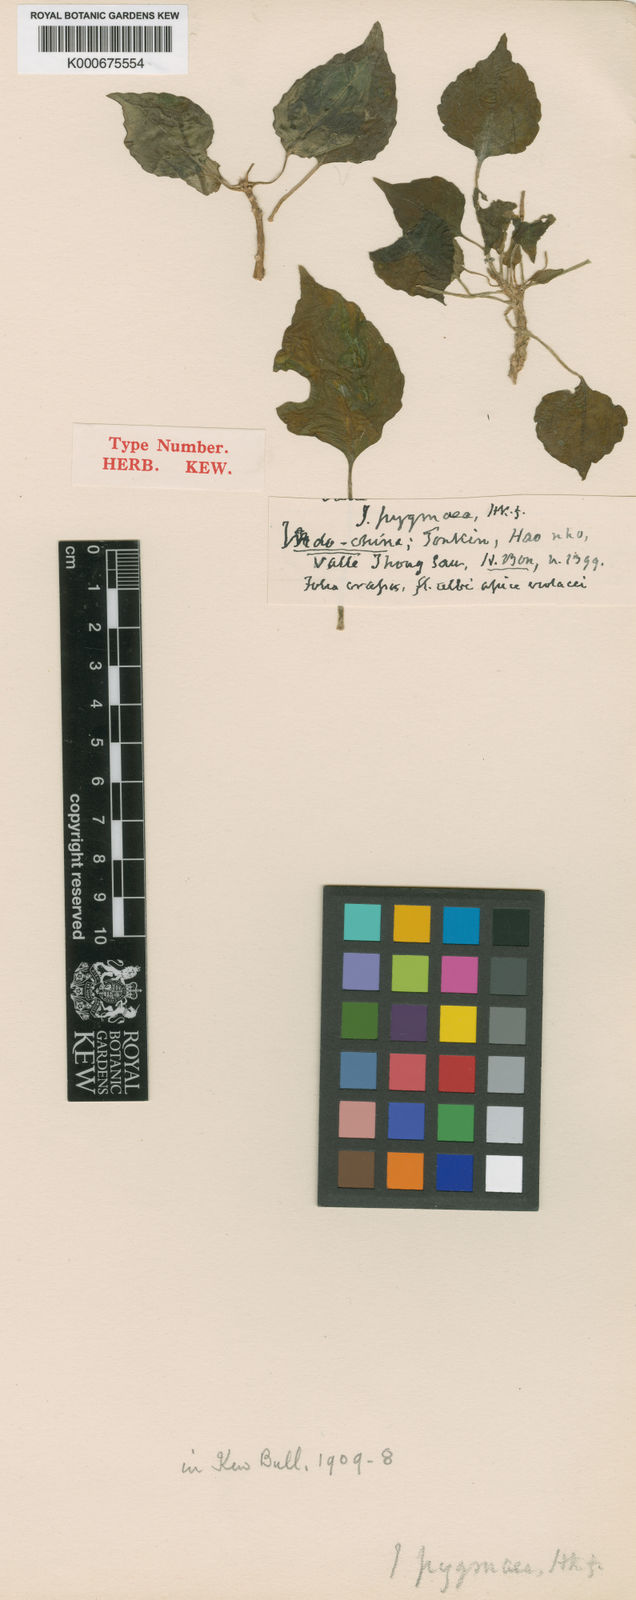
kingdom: Plantae
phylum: Tracheophyta
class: Magnoliopsida
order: Ericales
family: Balsaminaceae
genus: Impatiens
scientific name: Impatiens pygmaea
